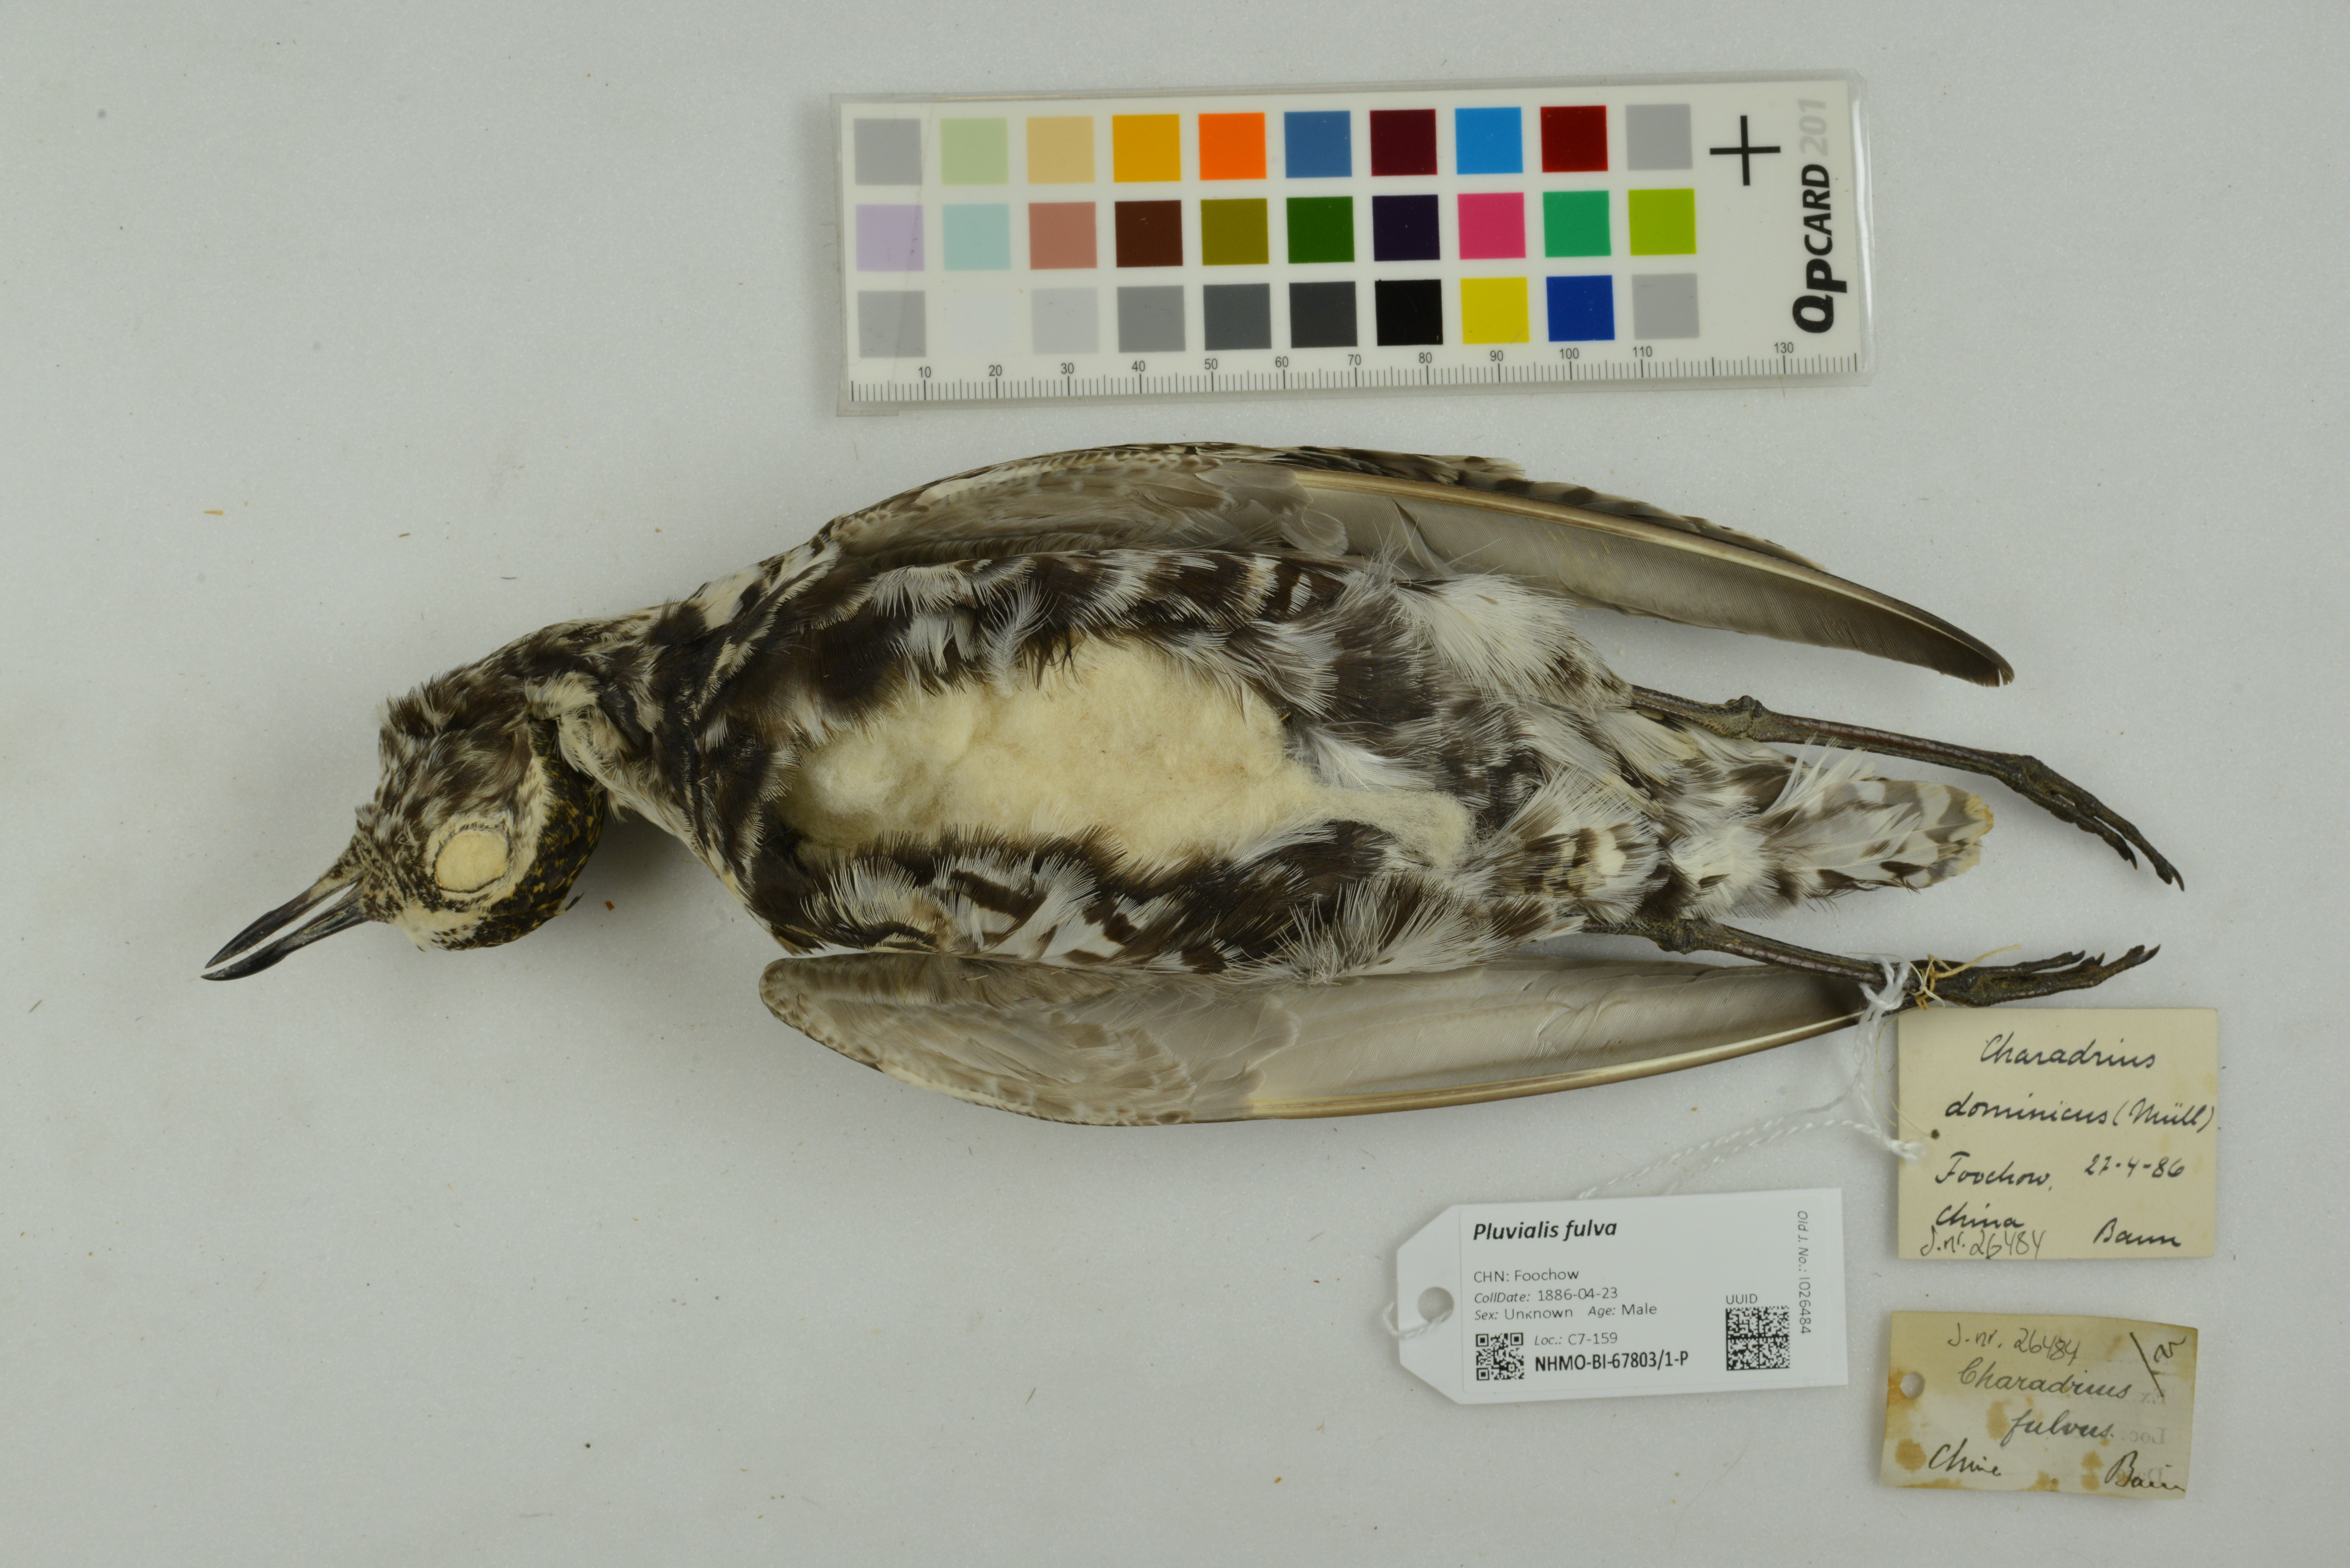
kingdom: Animalia
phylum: Chordata
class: Aves
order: Charadriiformes
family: Charadriidae
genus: Pluvialis
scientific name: Pluvialis fulva
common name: Pacific golden plover
